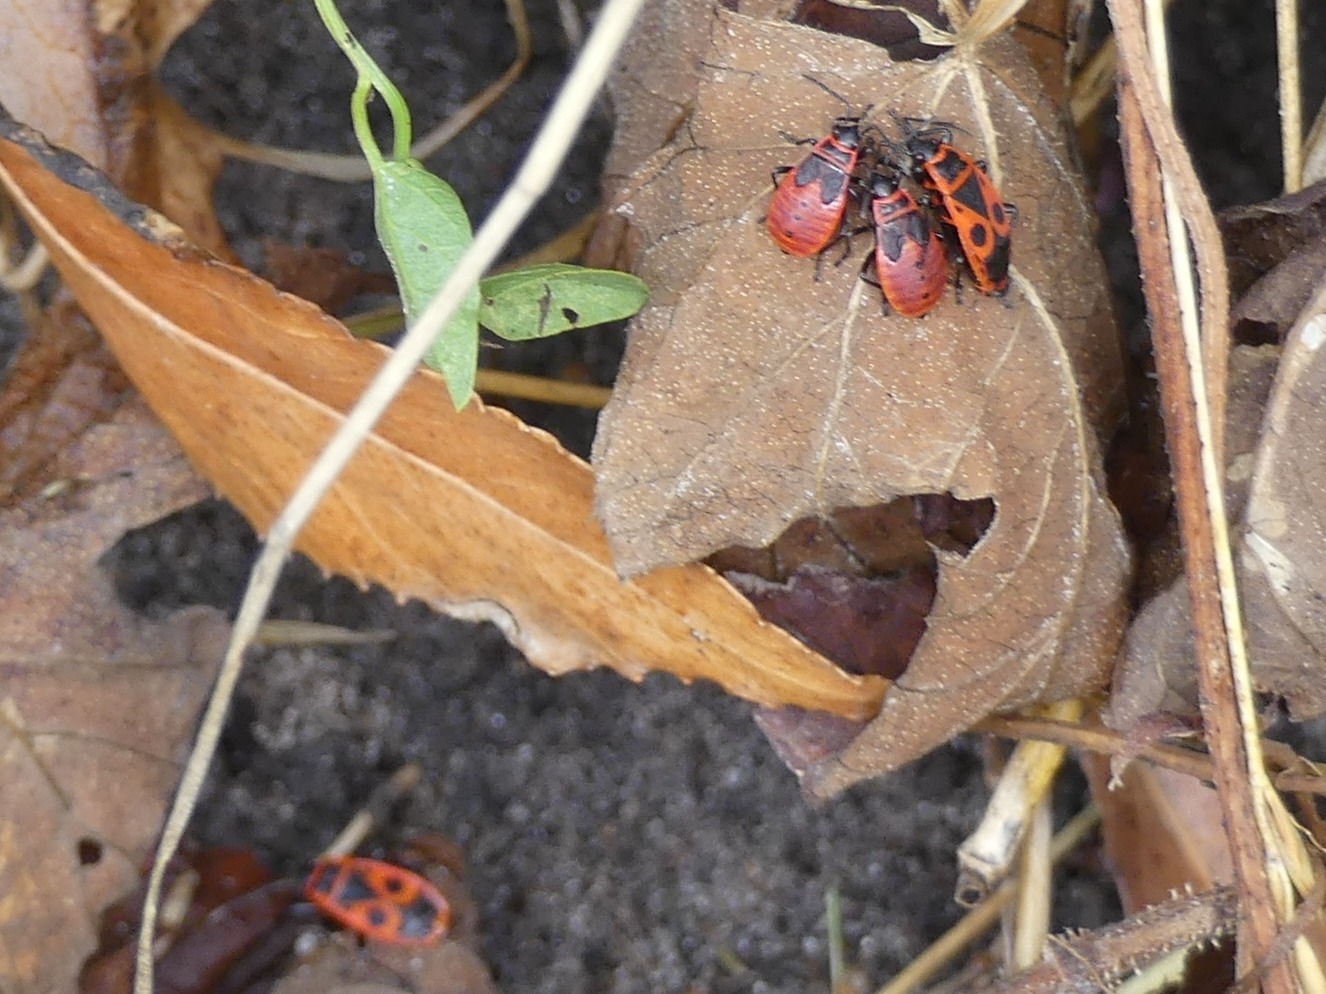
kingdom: Animalia
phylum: Arthropoda
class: Insecta
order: Hemiptera
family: Pyrrhocoridae
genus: Pyrrhocoris
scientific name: Pyrrhocoris apterus
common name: Ildtæge
